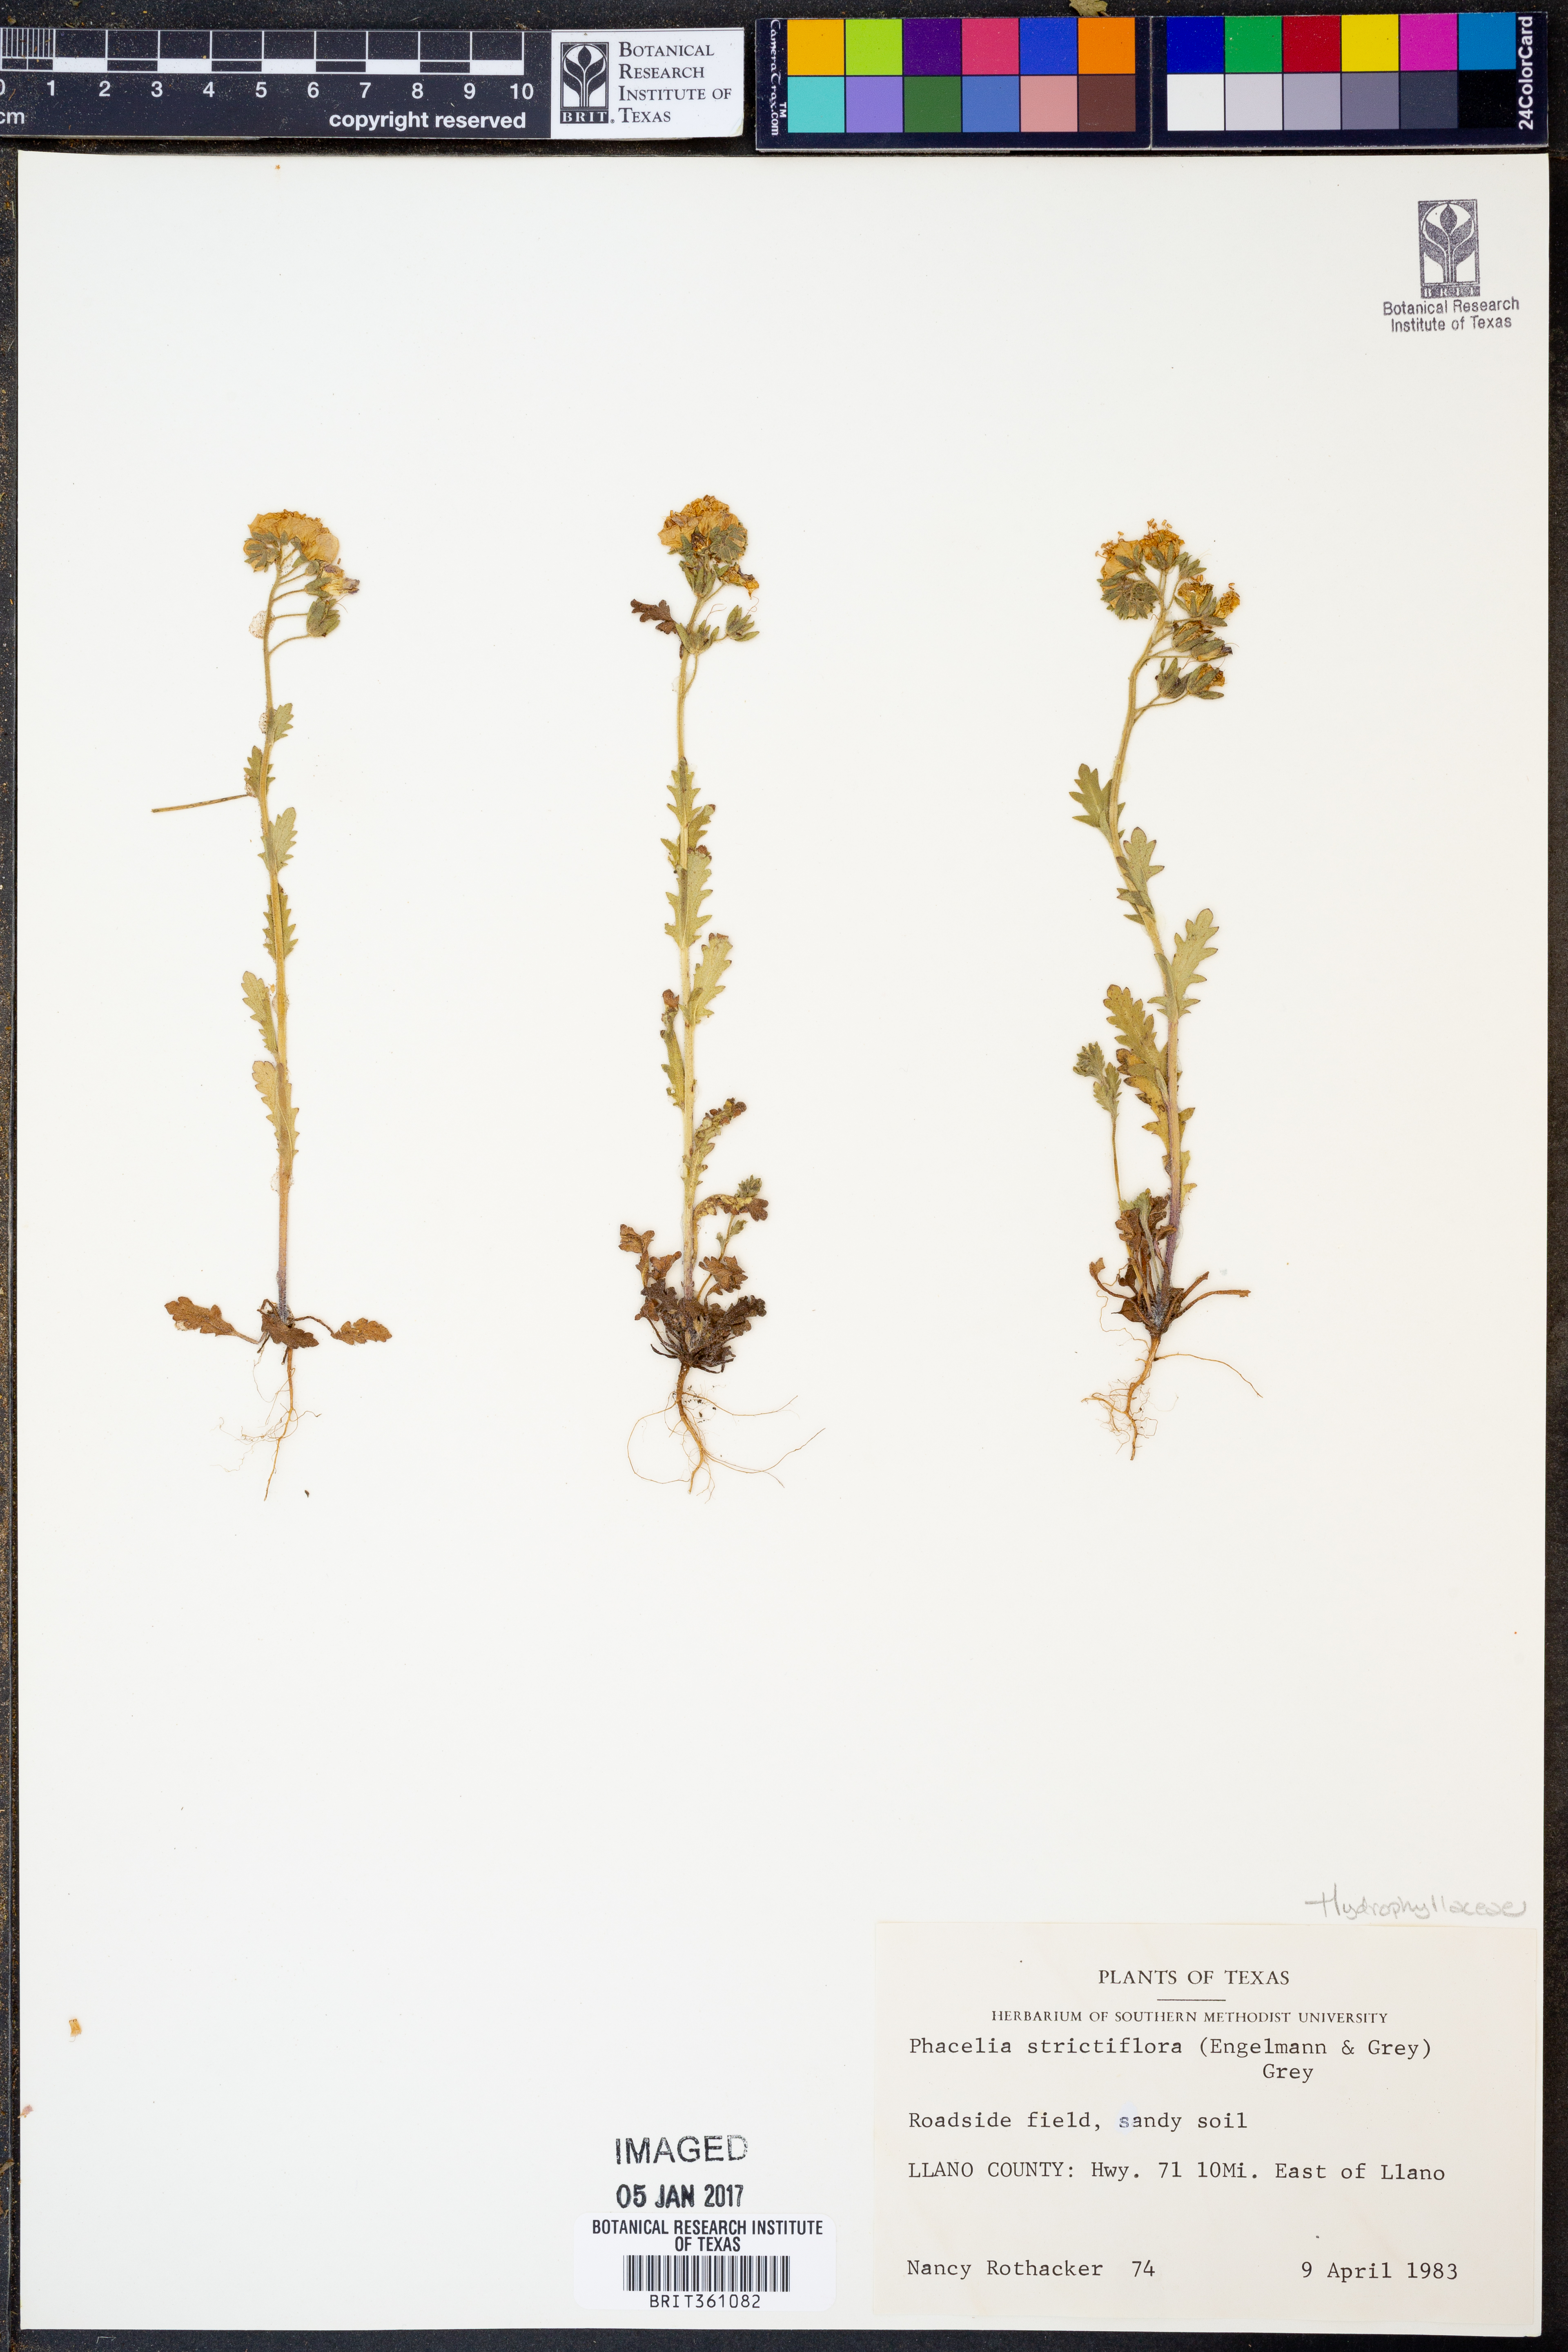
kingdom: Plantae
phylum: Tracheophyta
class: Magnoliopsida
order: Boraginales
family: Hydrophyllaceae
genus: Phacelia
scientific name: Phacelia strictiflora
